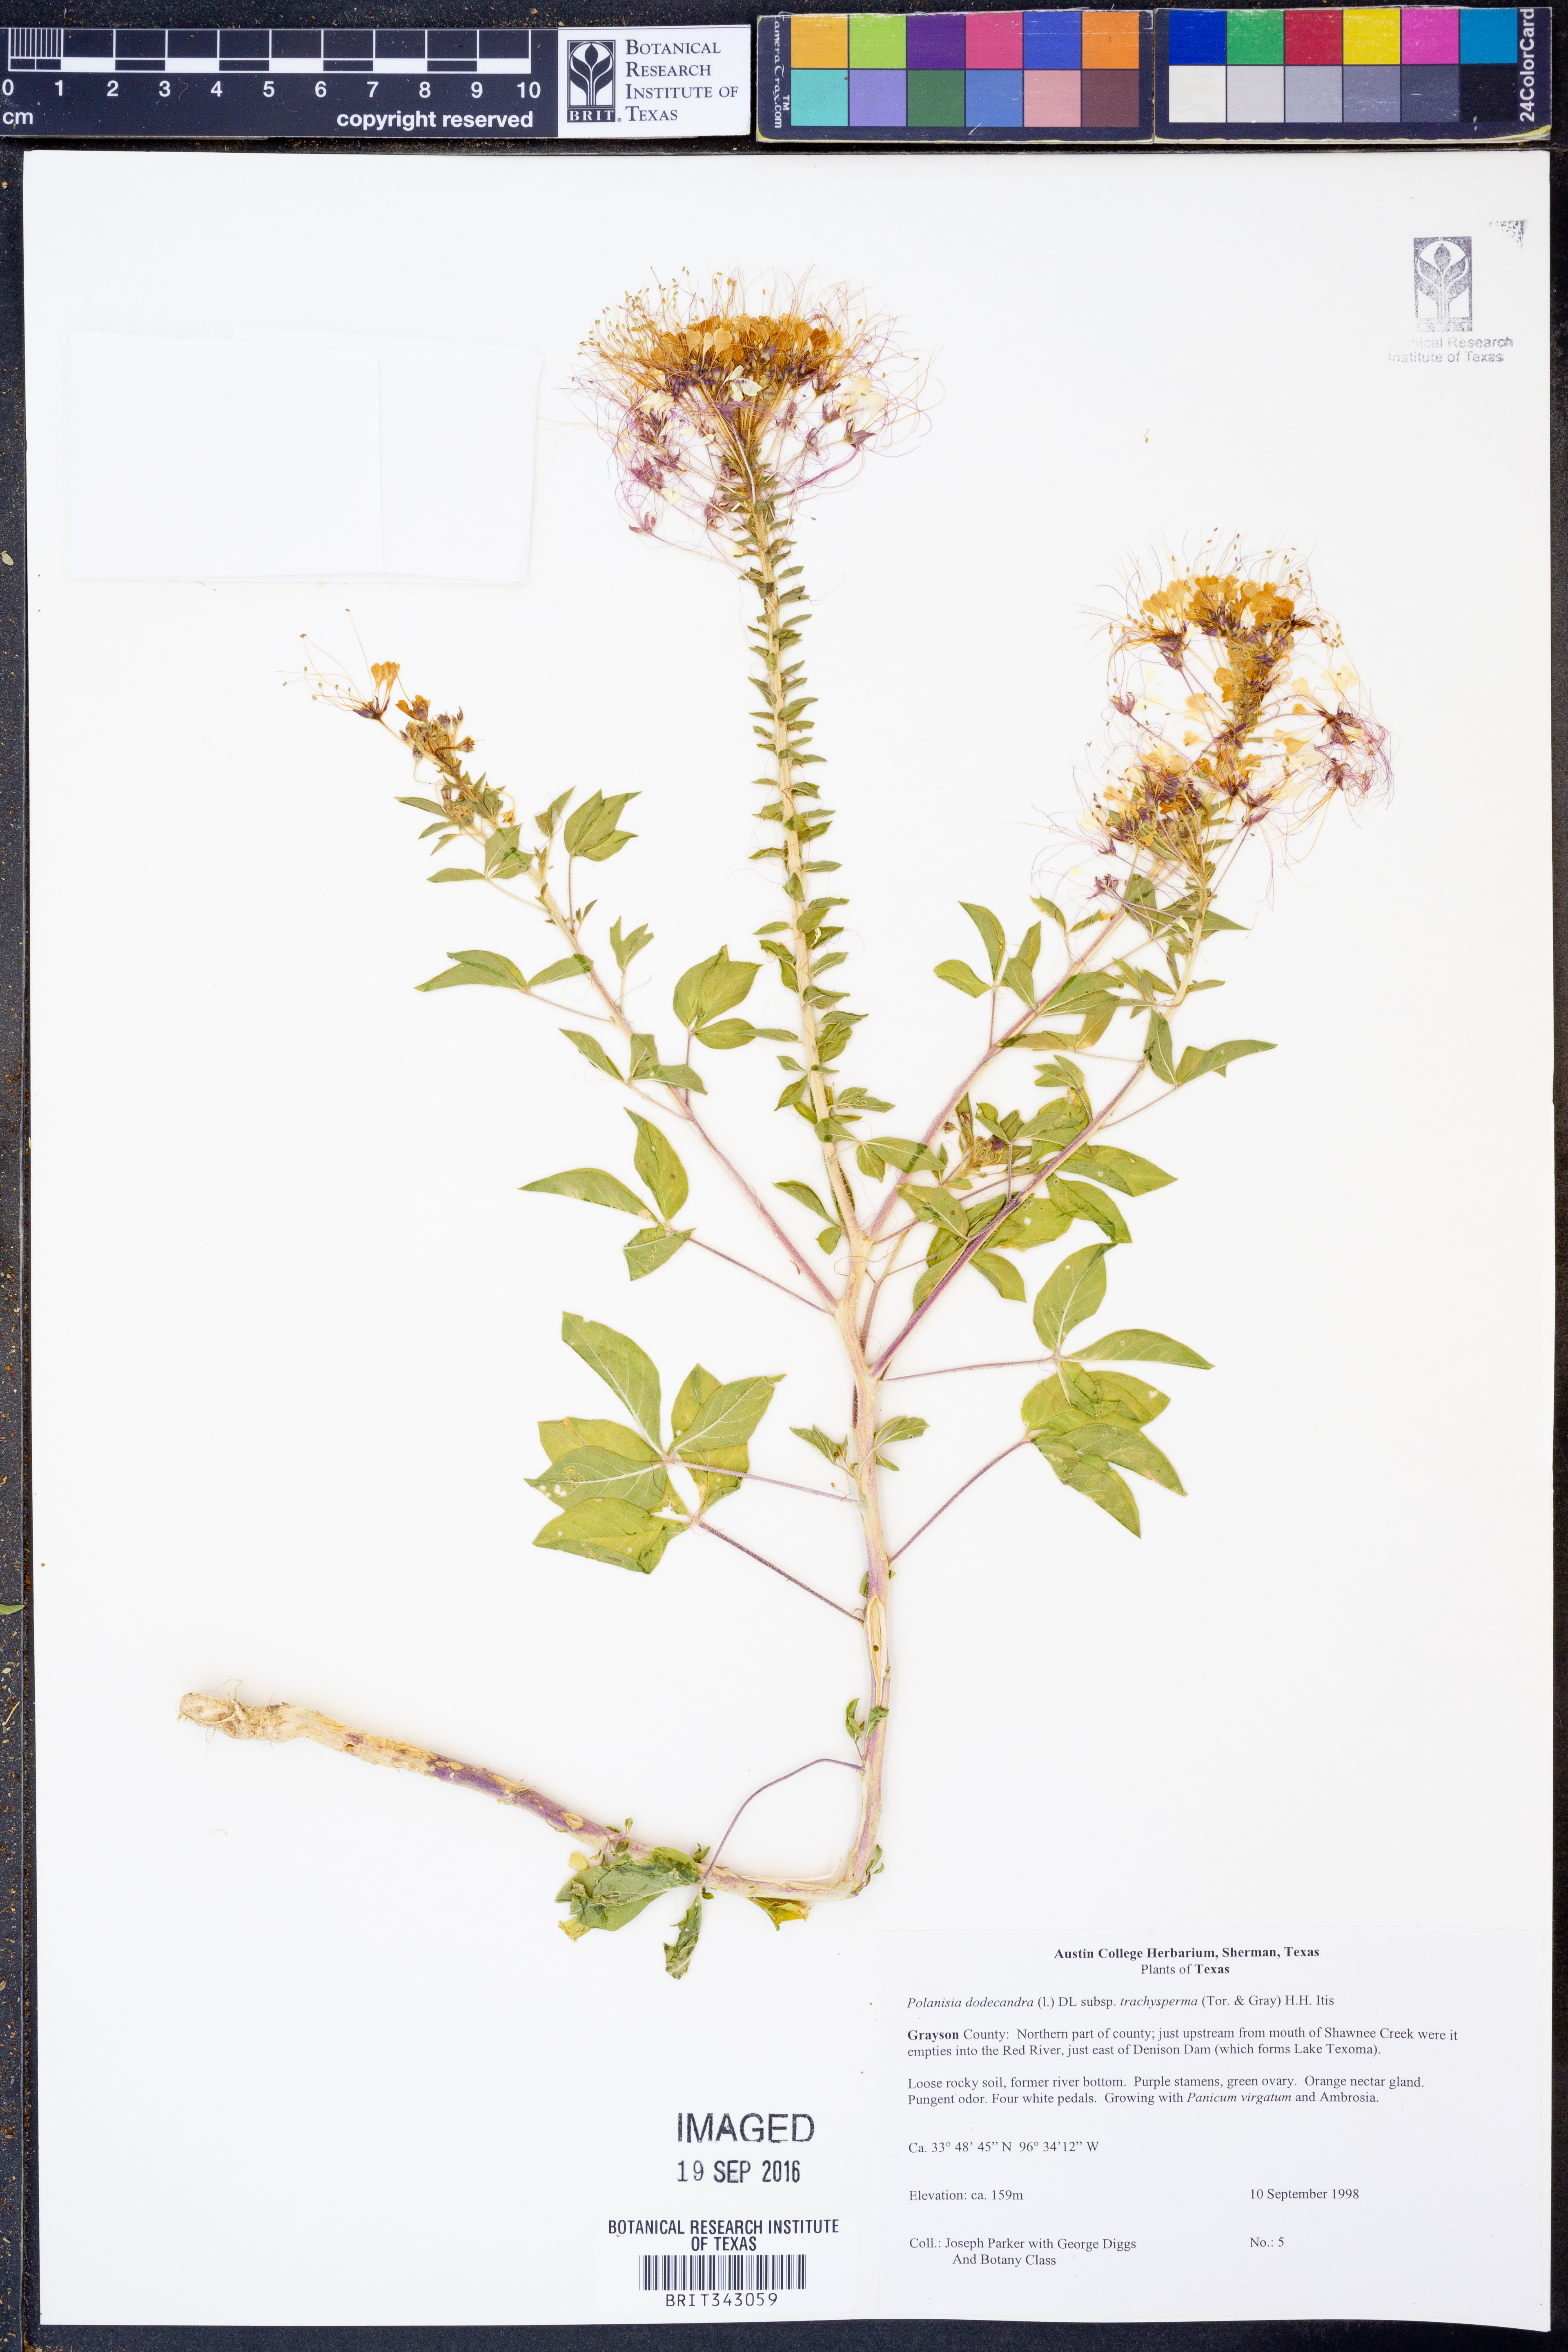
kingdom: Plantae
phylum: Tracheophyta
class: Magnoliopsida
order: Brassicales
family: Cleomaceae
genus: Polanisia
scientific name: Polanisia trachysperma
